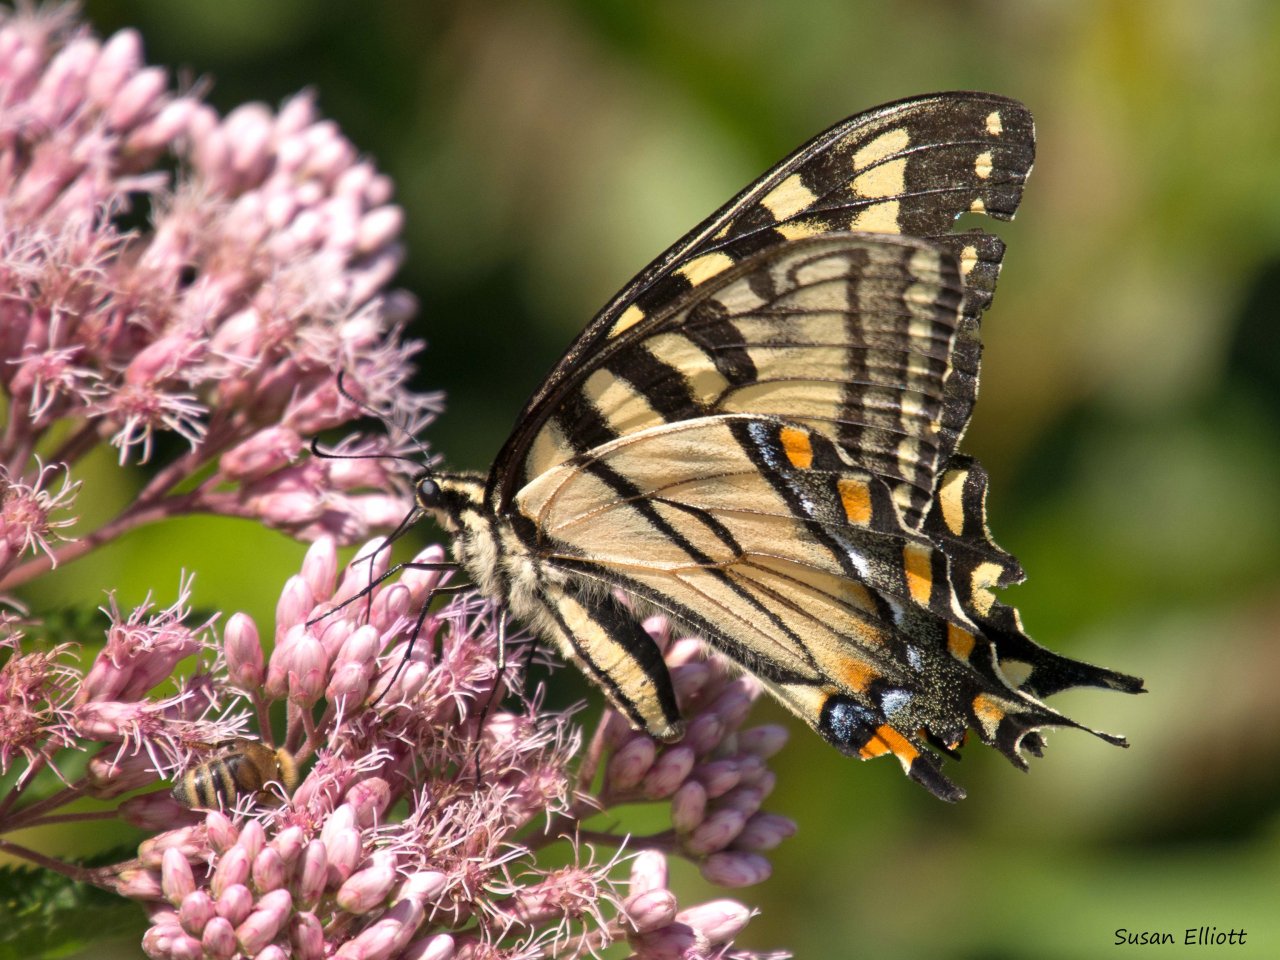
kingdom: Animalia
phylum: Arthropoda
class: Insecta
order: Lepidoptera
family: Papilionidae
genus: Pterourus
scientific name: Pterourus
